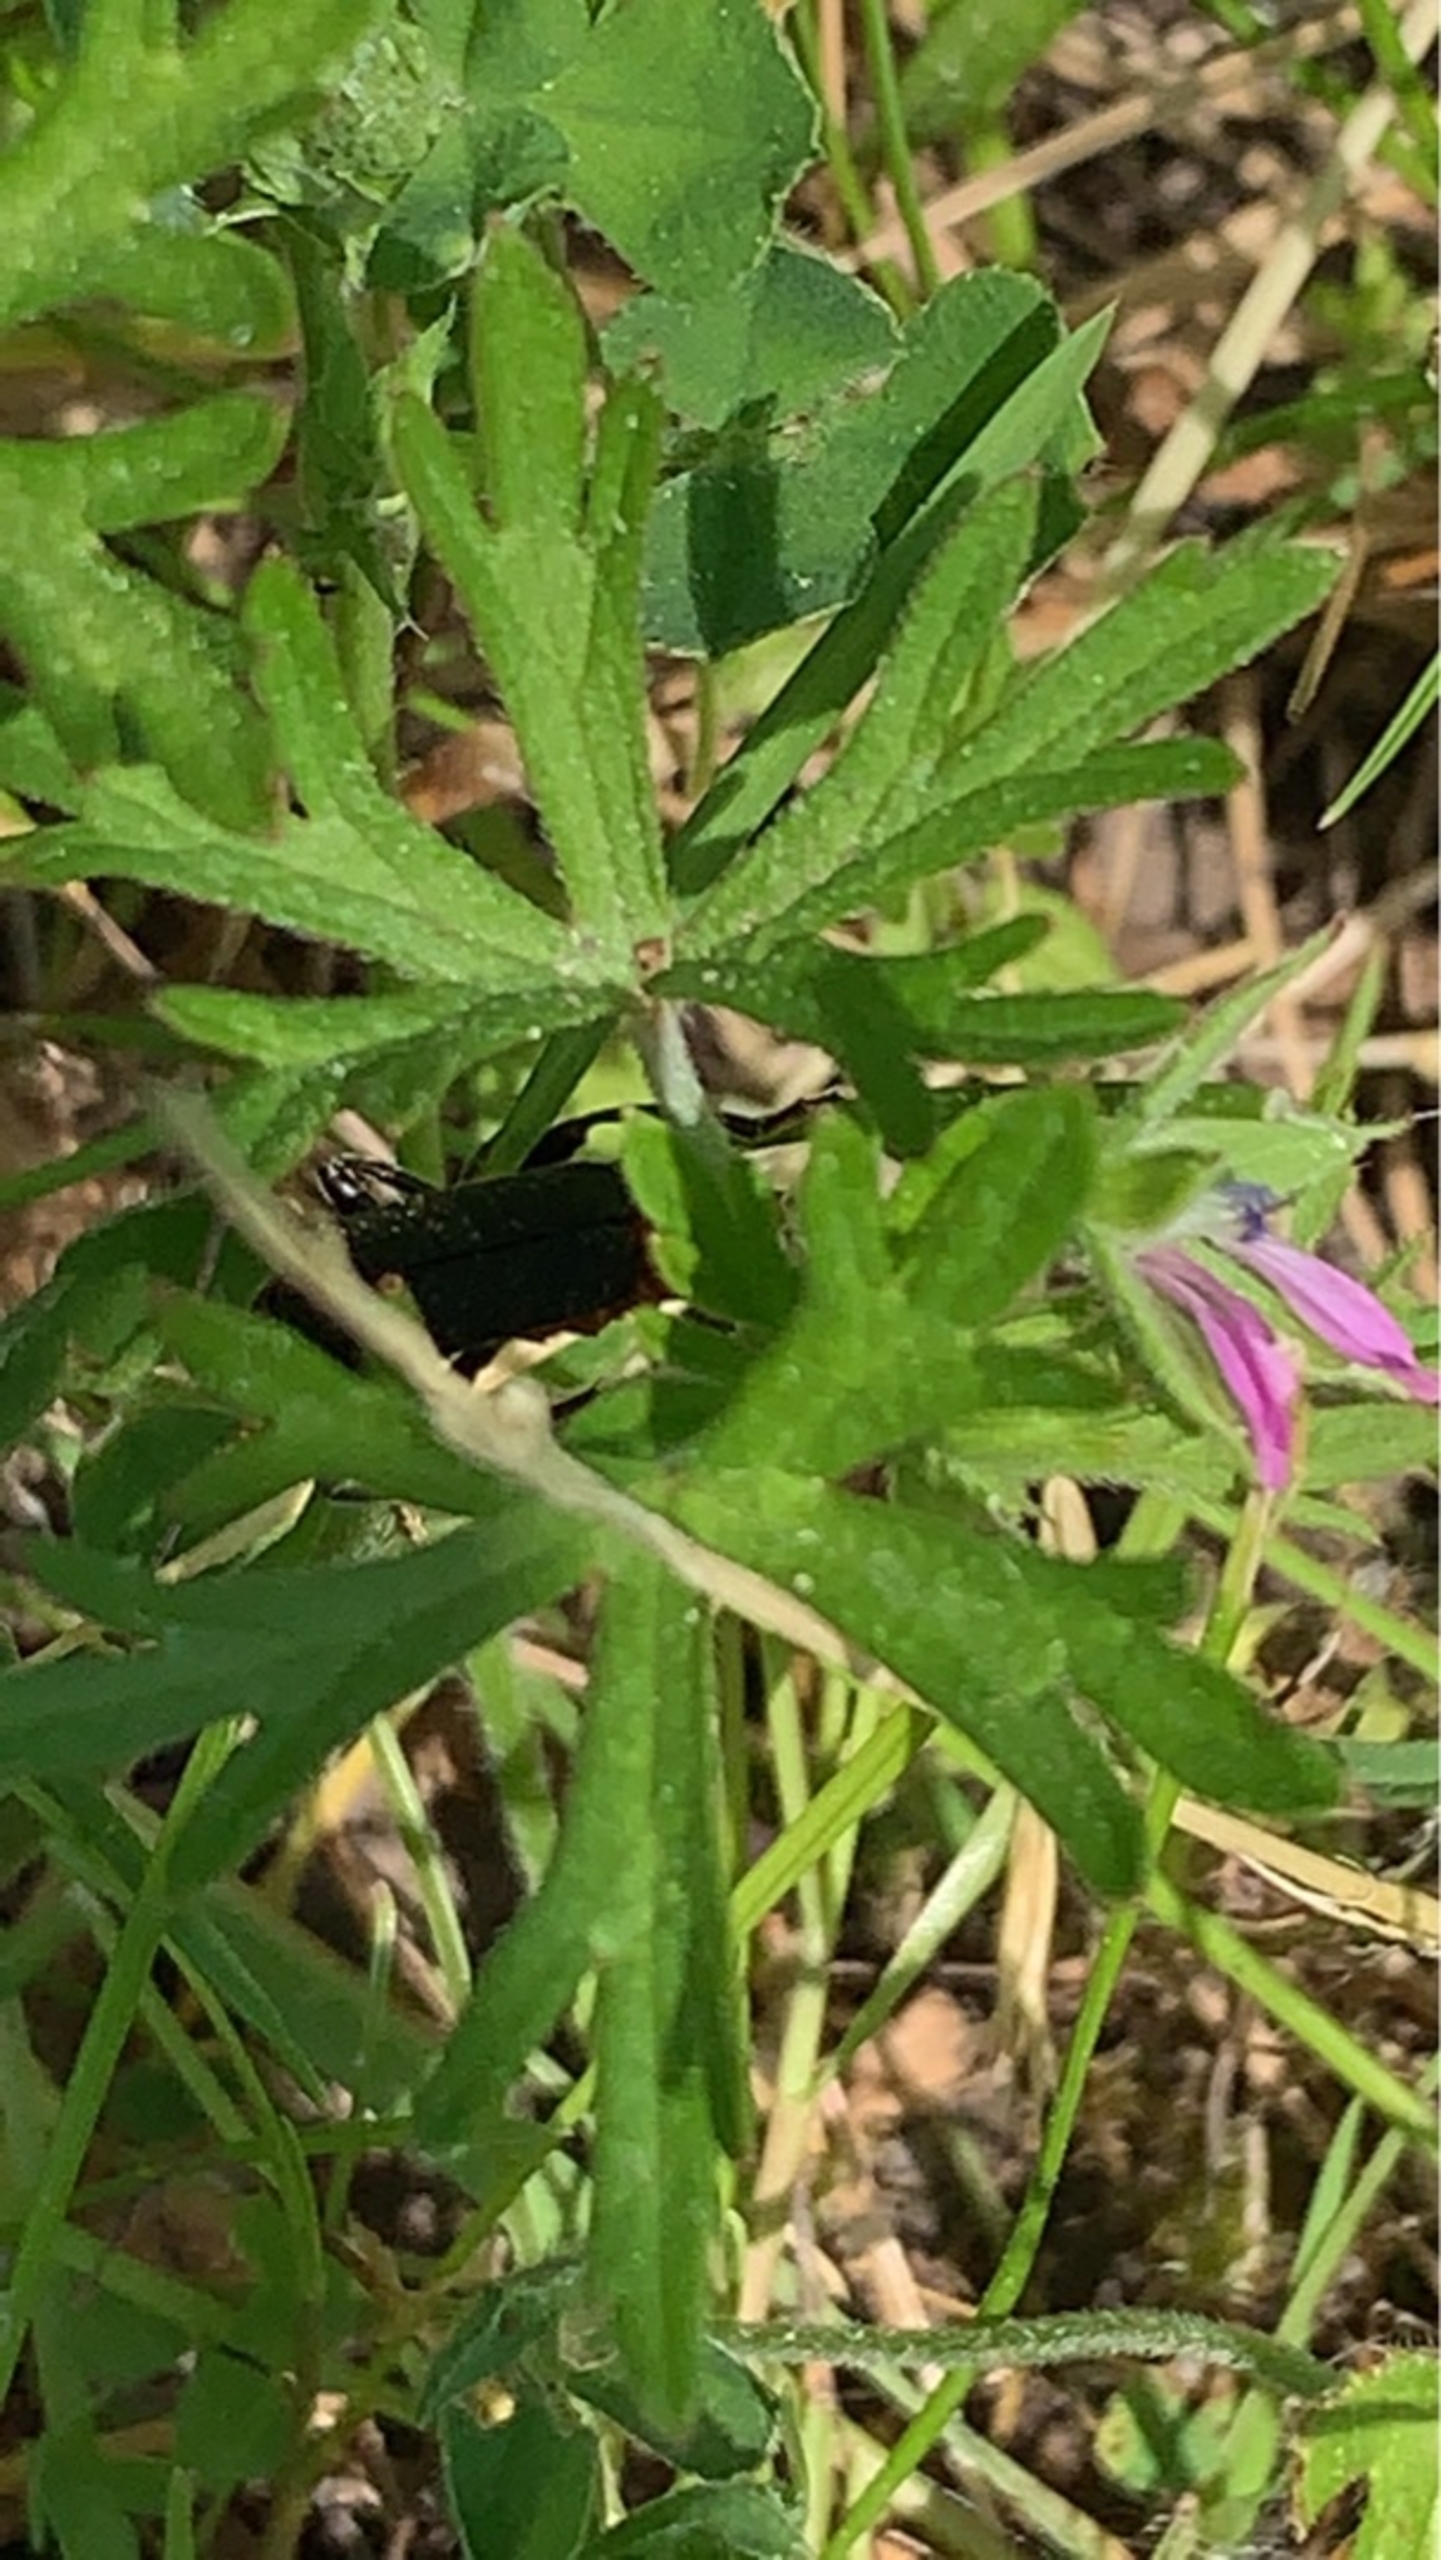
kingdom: Animalia
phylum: Arthropoda
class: Insecta
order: Coleoptera
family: Cantharidae
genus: Cantharis
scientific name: Cantharis fusca
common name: Stor blødvinge
